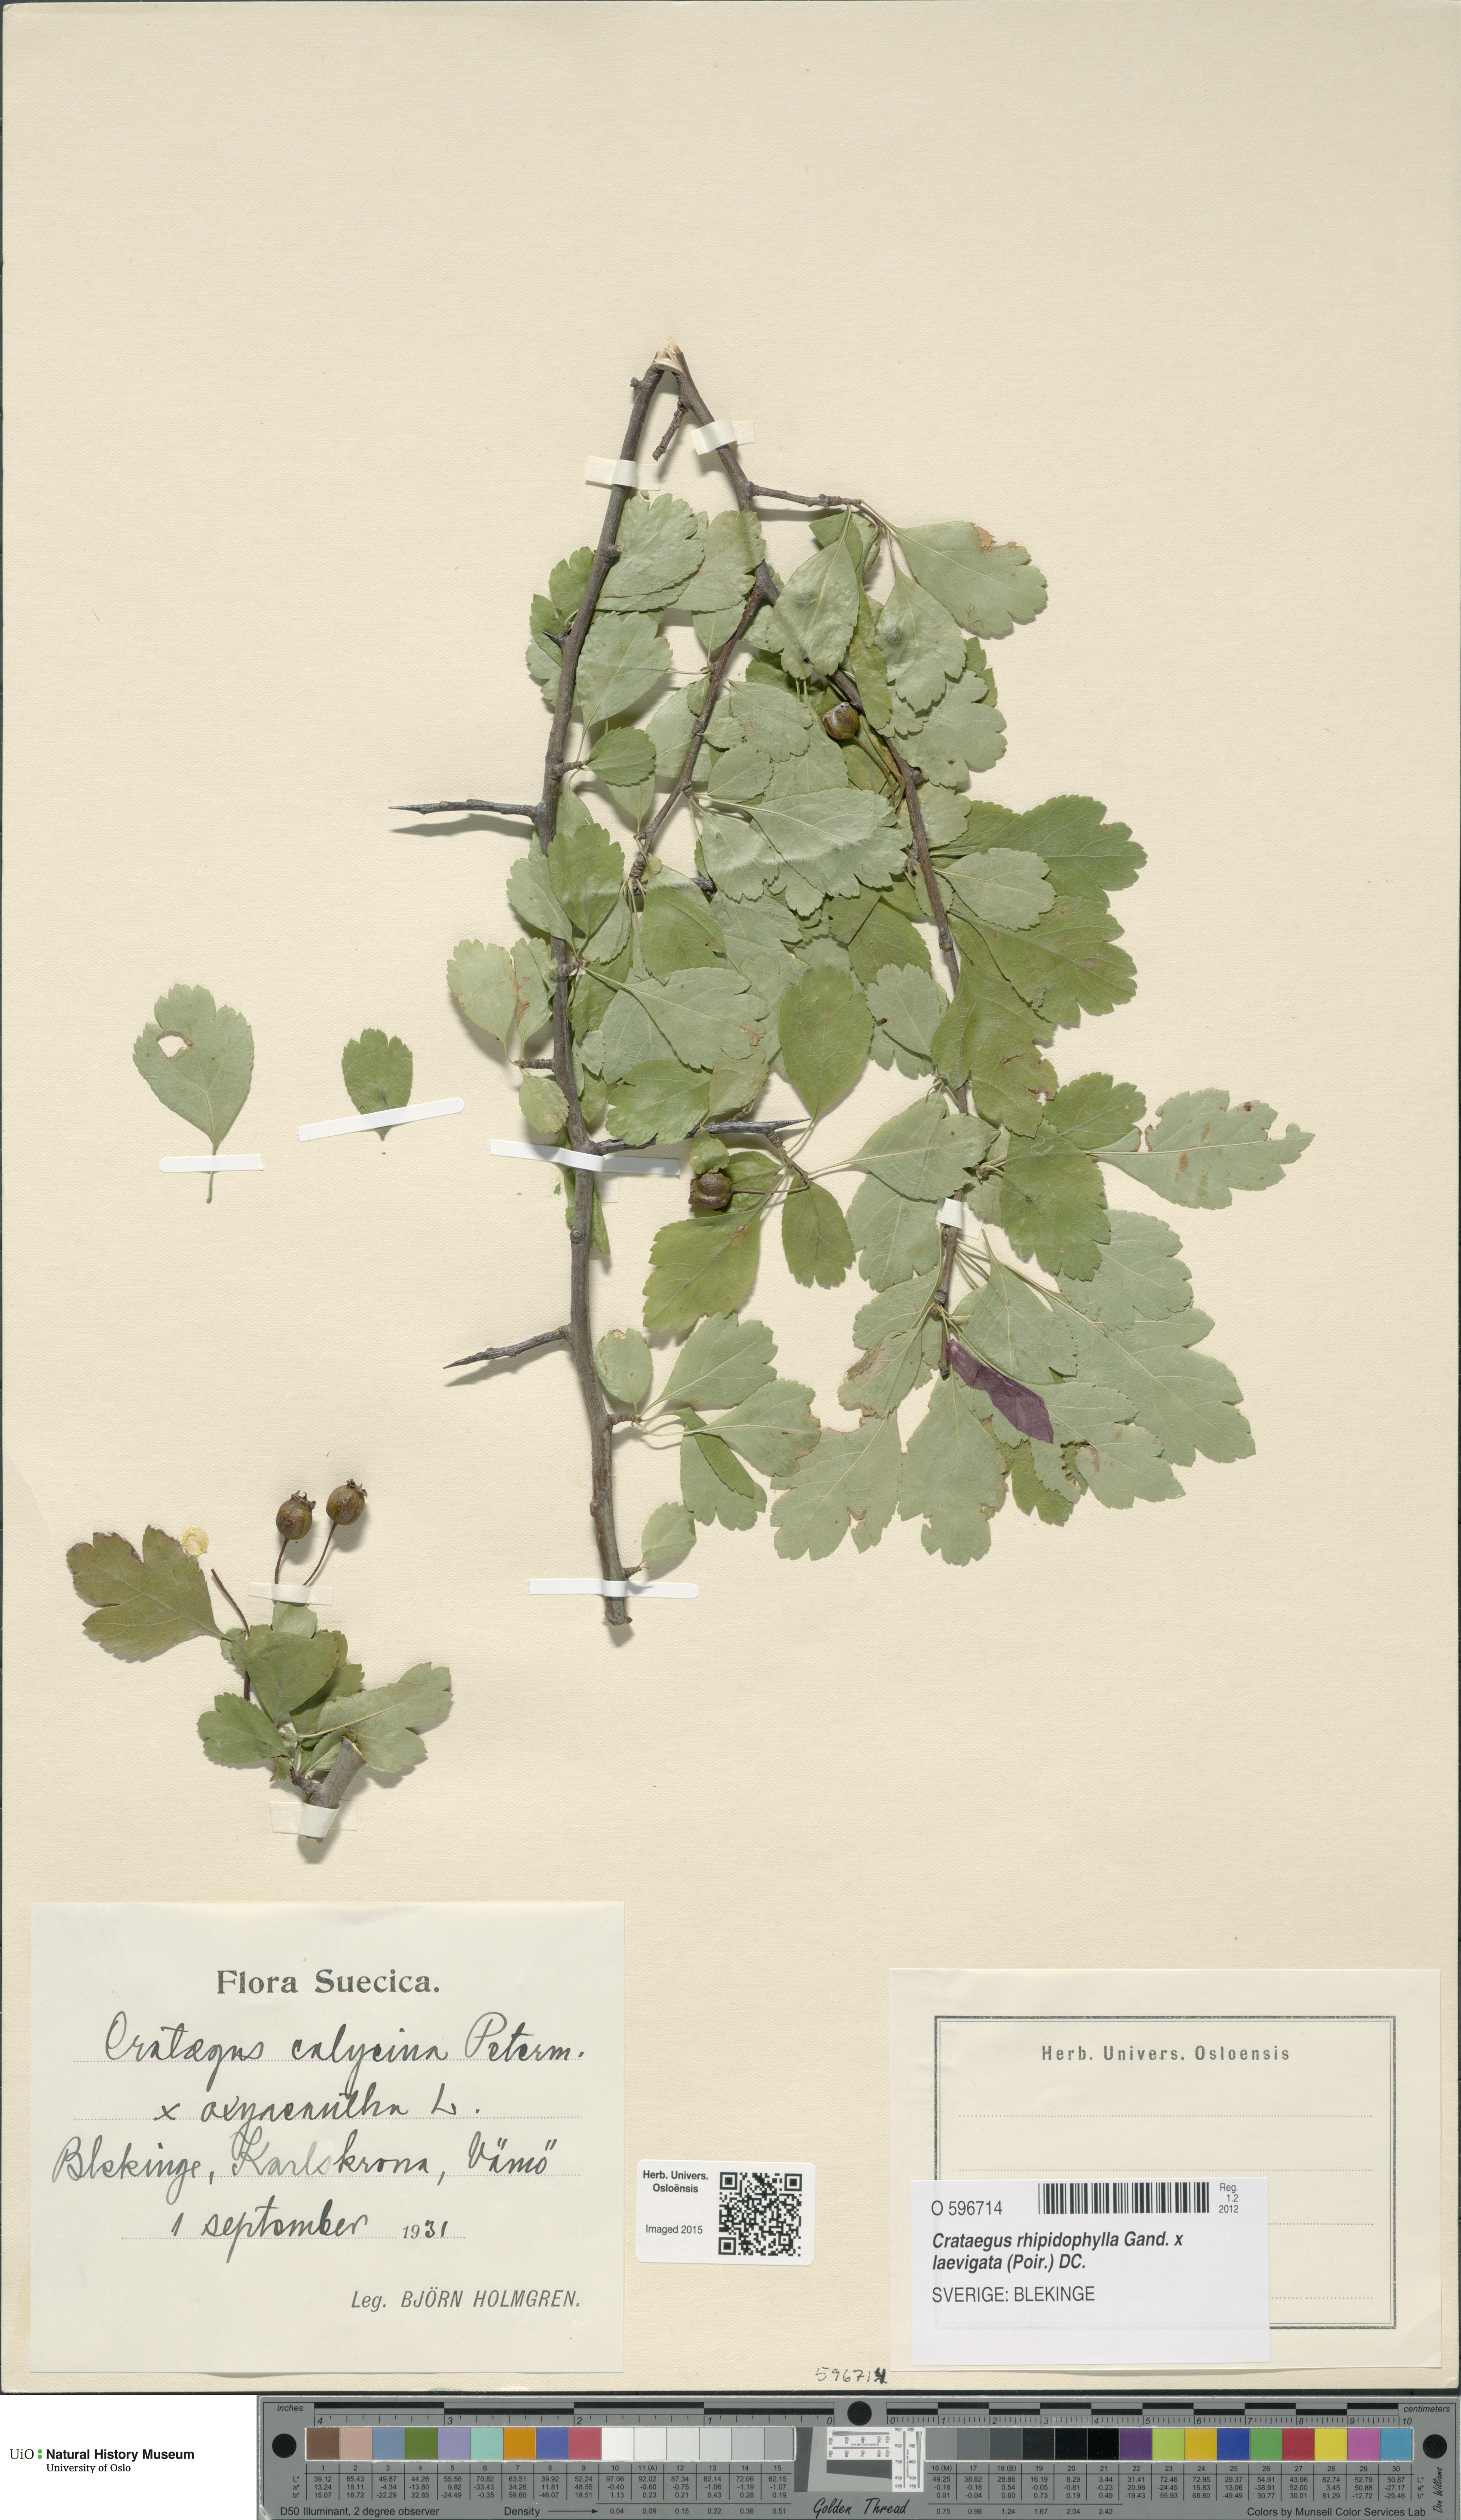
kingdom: Plantae
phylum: Tracheophyta
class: Magnoliopsida
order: Rosales
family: Rosaceae
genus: Crataegus
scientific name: Crataegus
